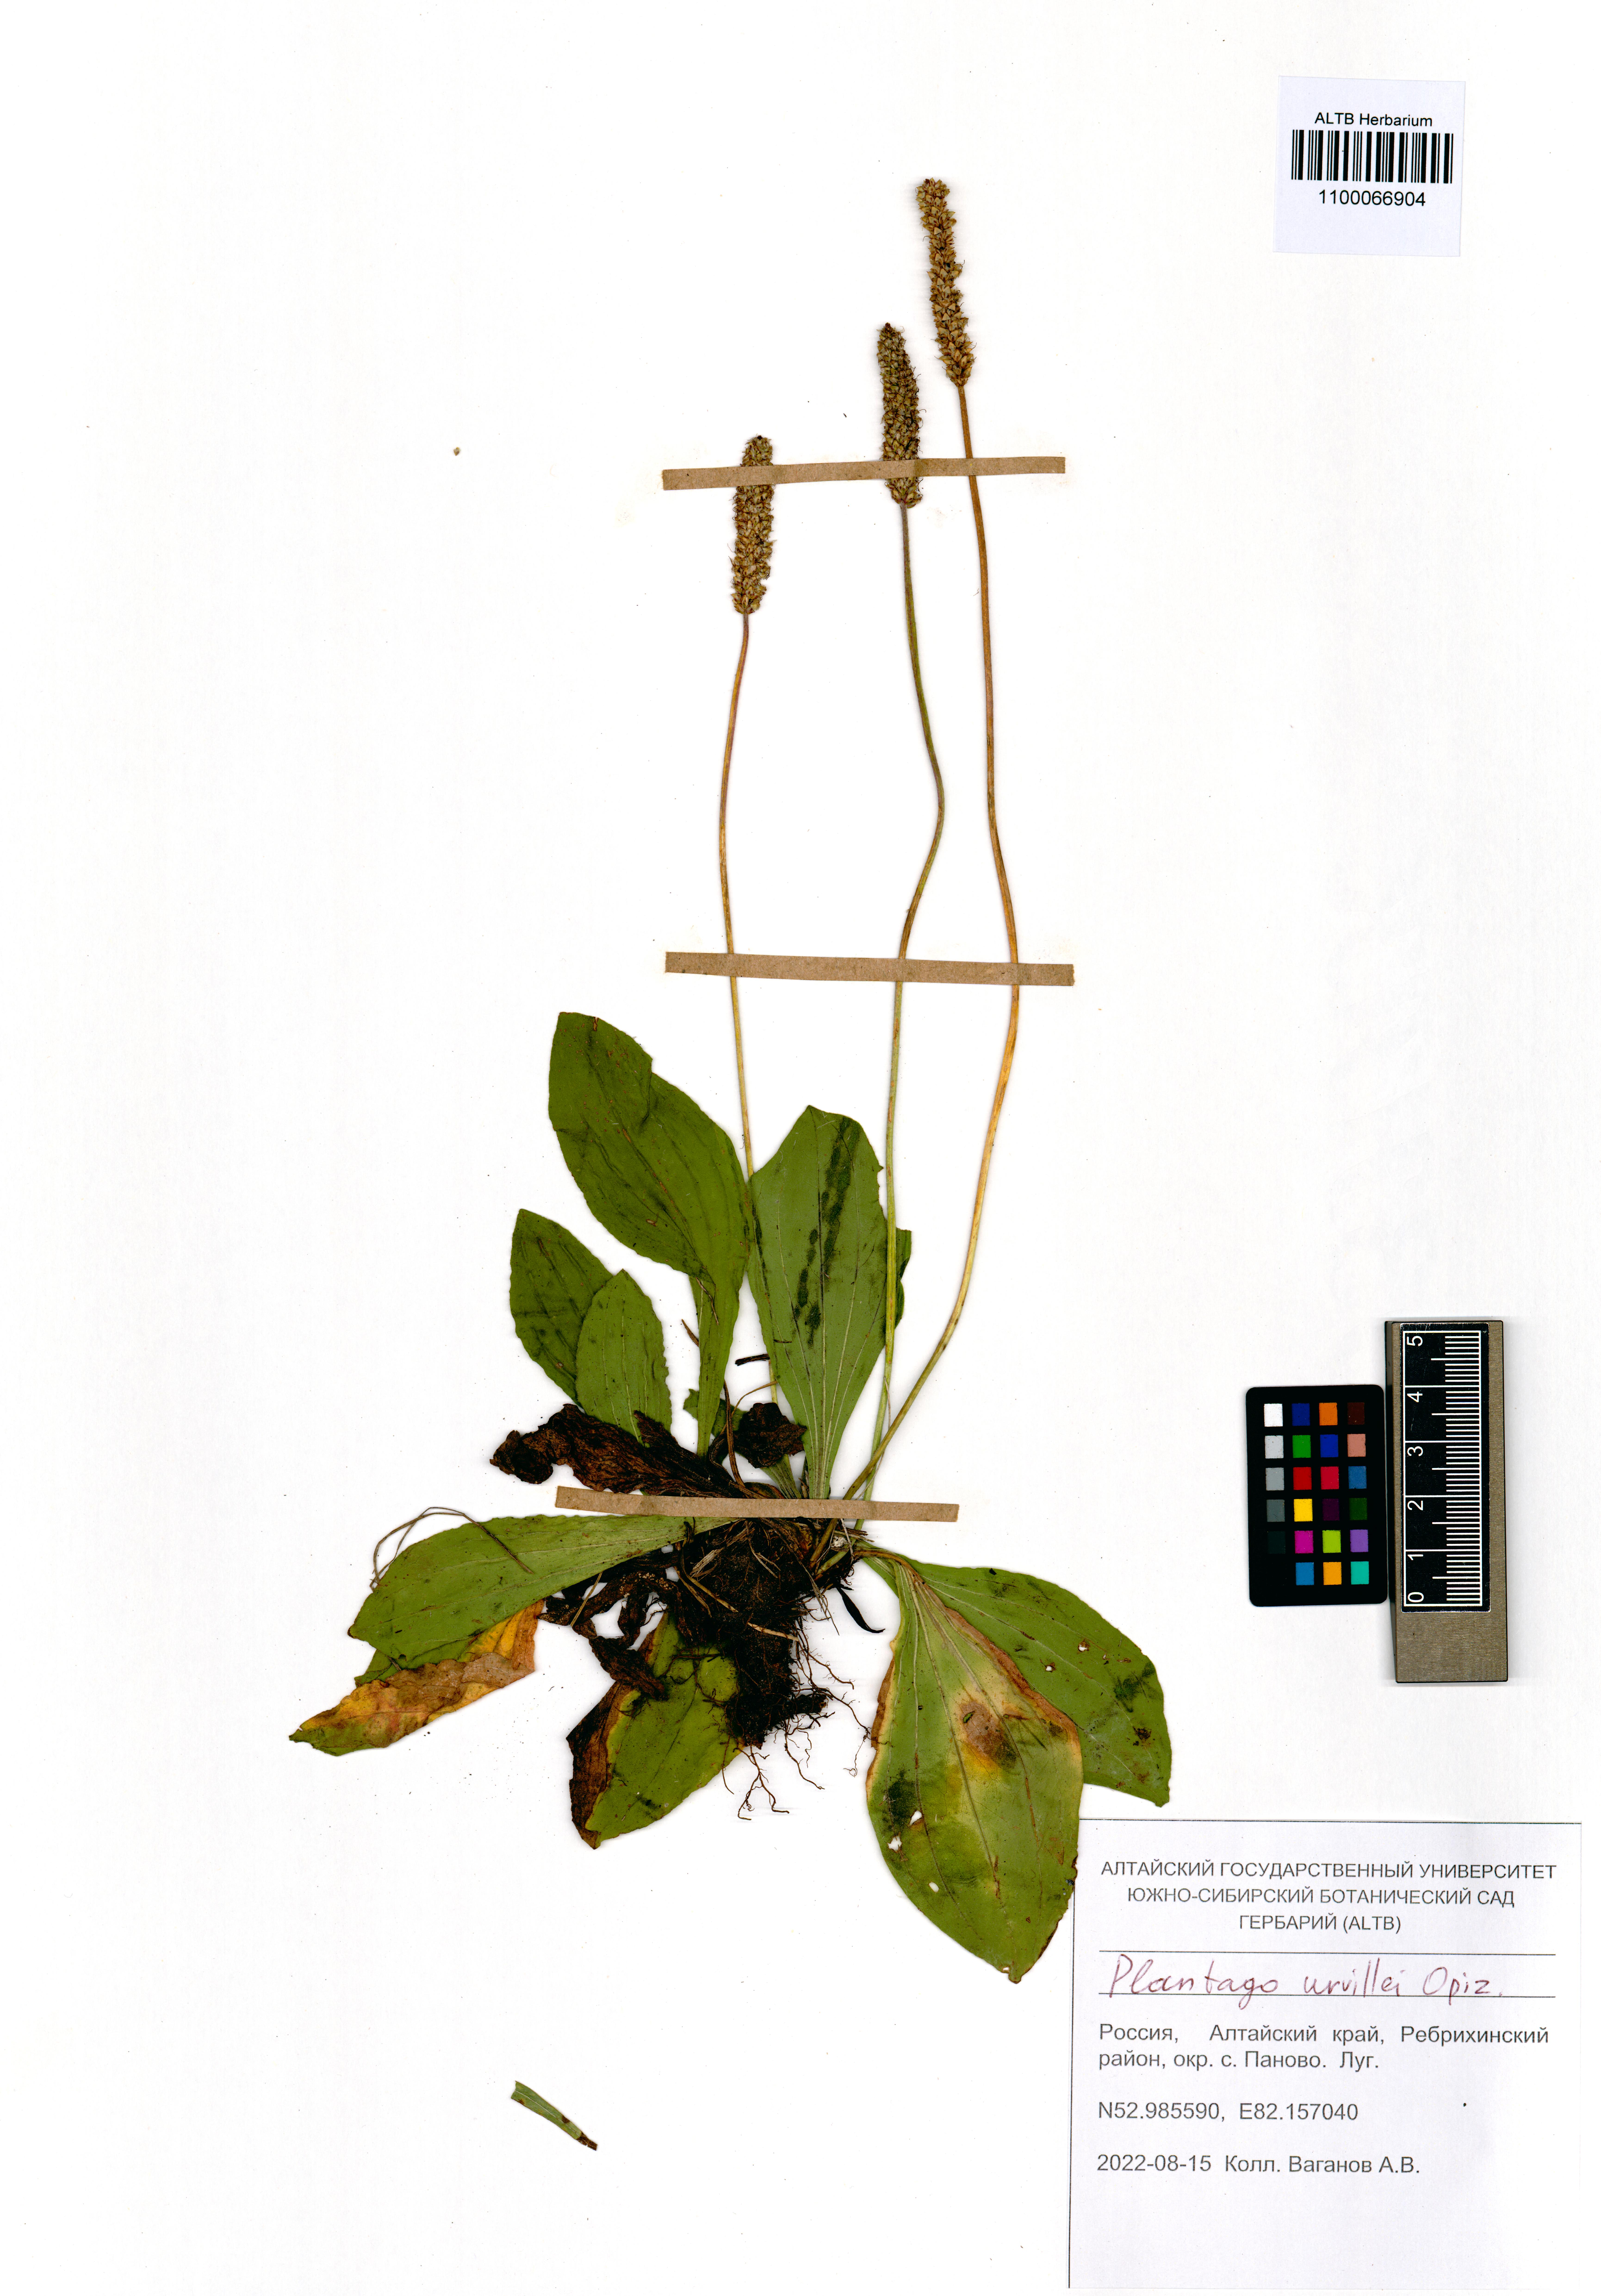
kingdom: Plantae
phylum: Tracheophyta
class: Magnoliopsida
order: Lamiales
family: Plantaginaceae
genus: Plantago
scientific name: Plantago urvillei
